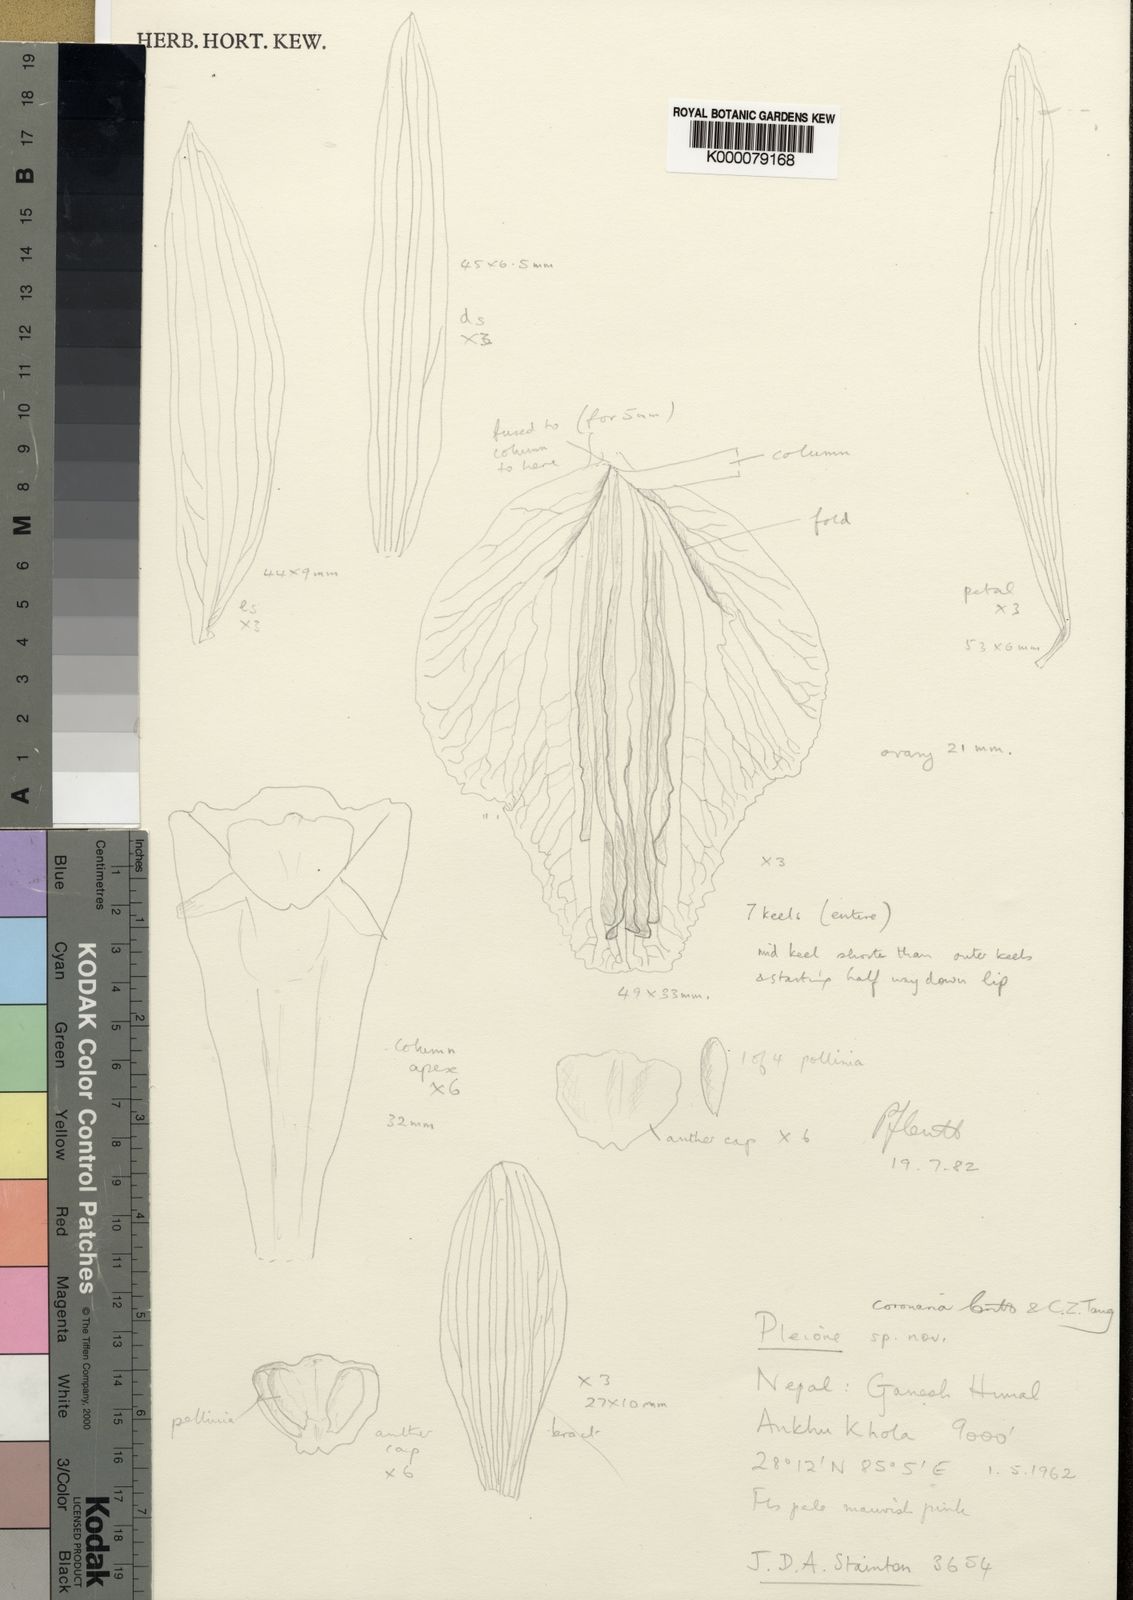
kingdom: Plantae
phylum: Tracheophyta
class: Liliopsida
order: Asparagales
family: Orchidaceae
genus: Pleione
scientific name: Pleione coronaria
